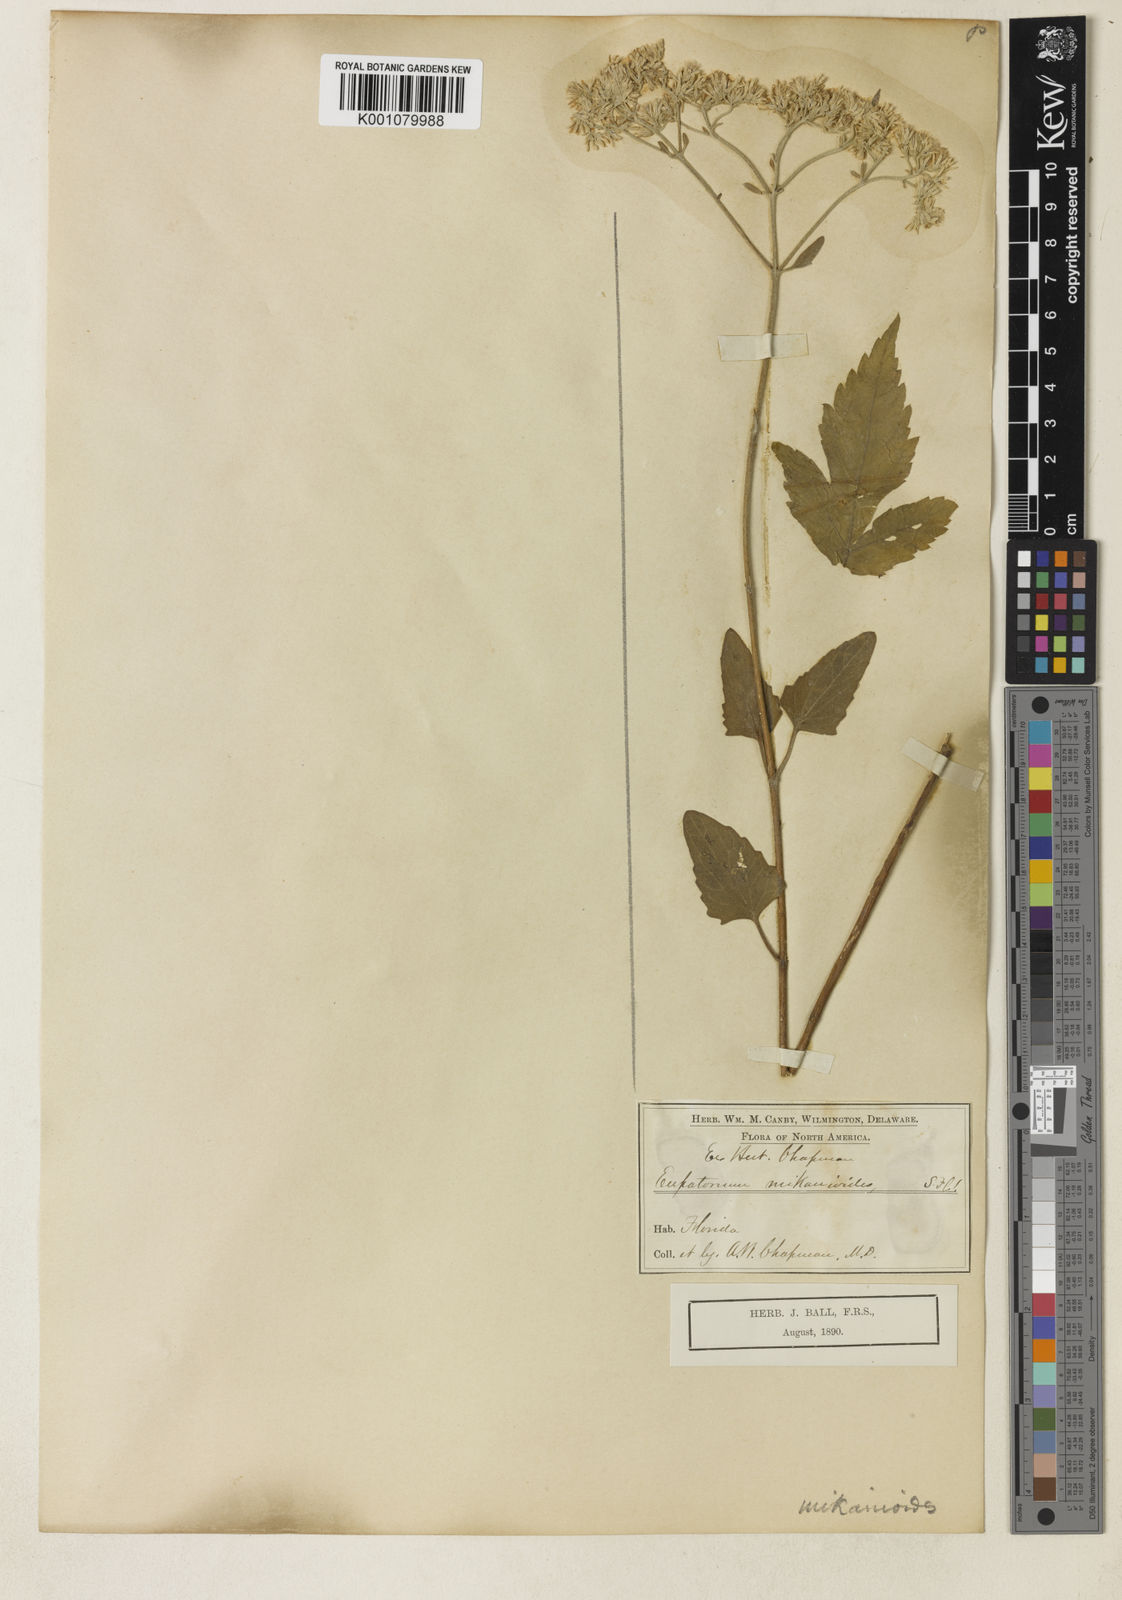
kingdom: Plantae
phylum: Tracheophyta
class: Magnoliopsida
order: Asterales
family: Asteraceae
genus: Eupatorium
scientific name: Eupatorium mikanioides
